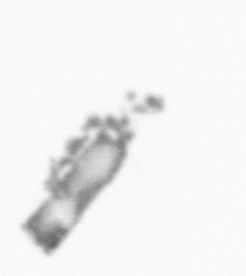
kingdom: Animalia
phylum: Arthropoda
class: Copepoda
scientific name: Copepoda
